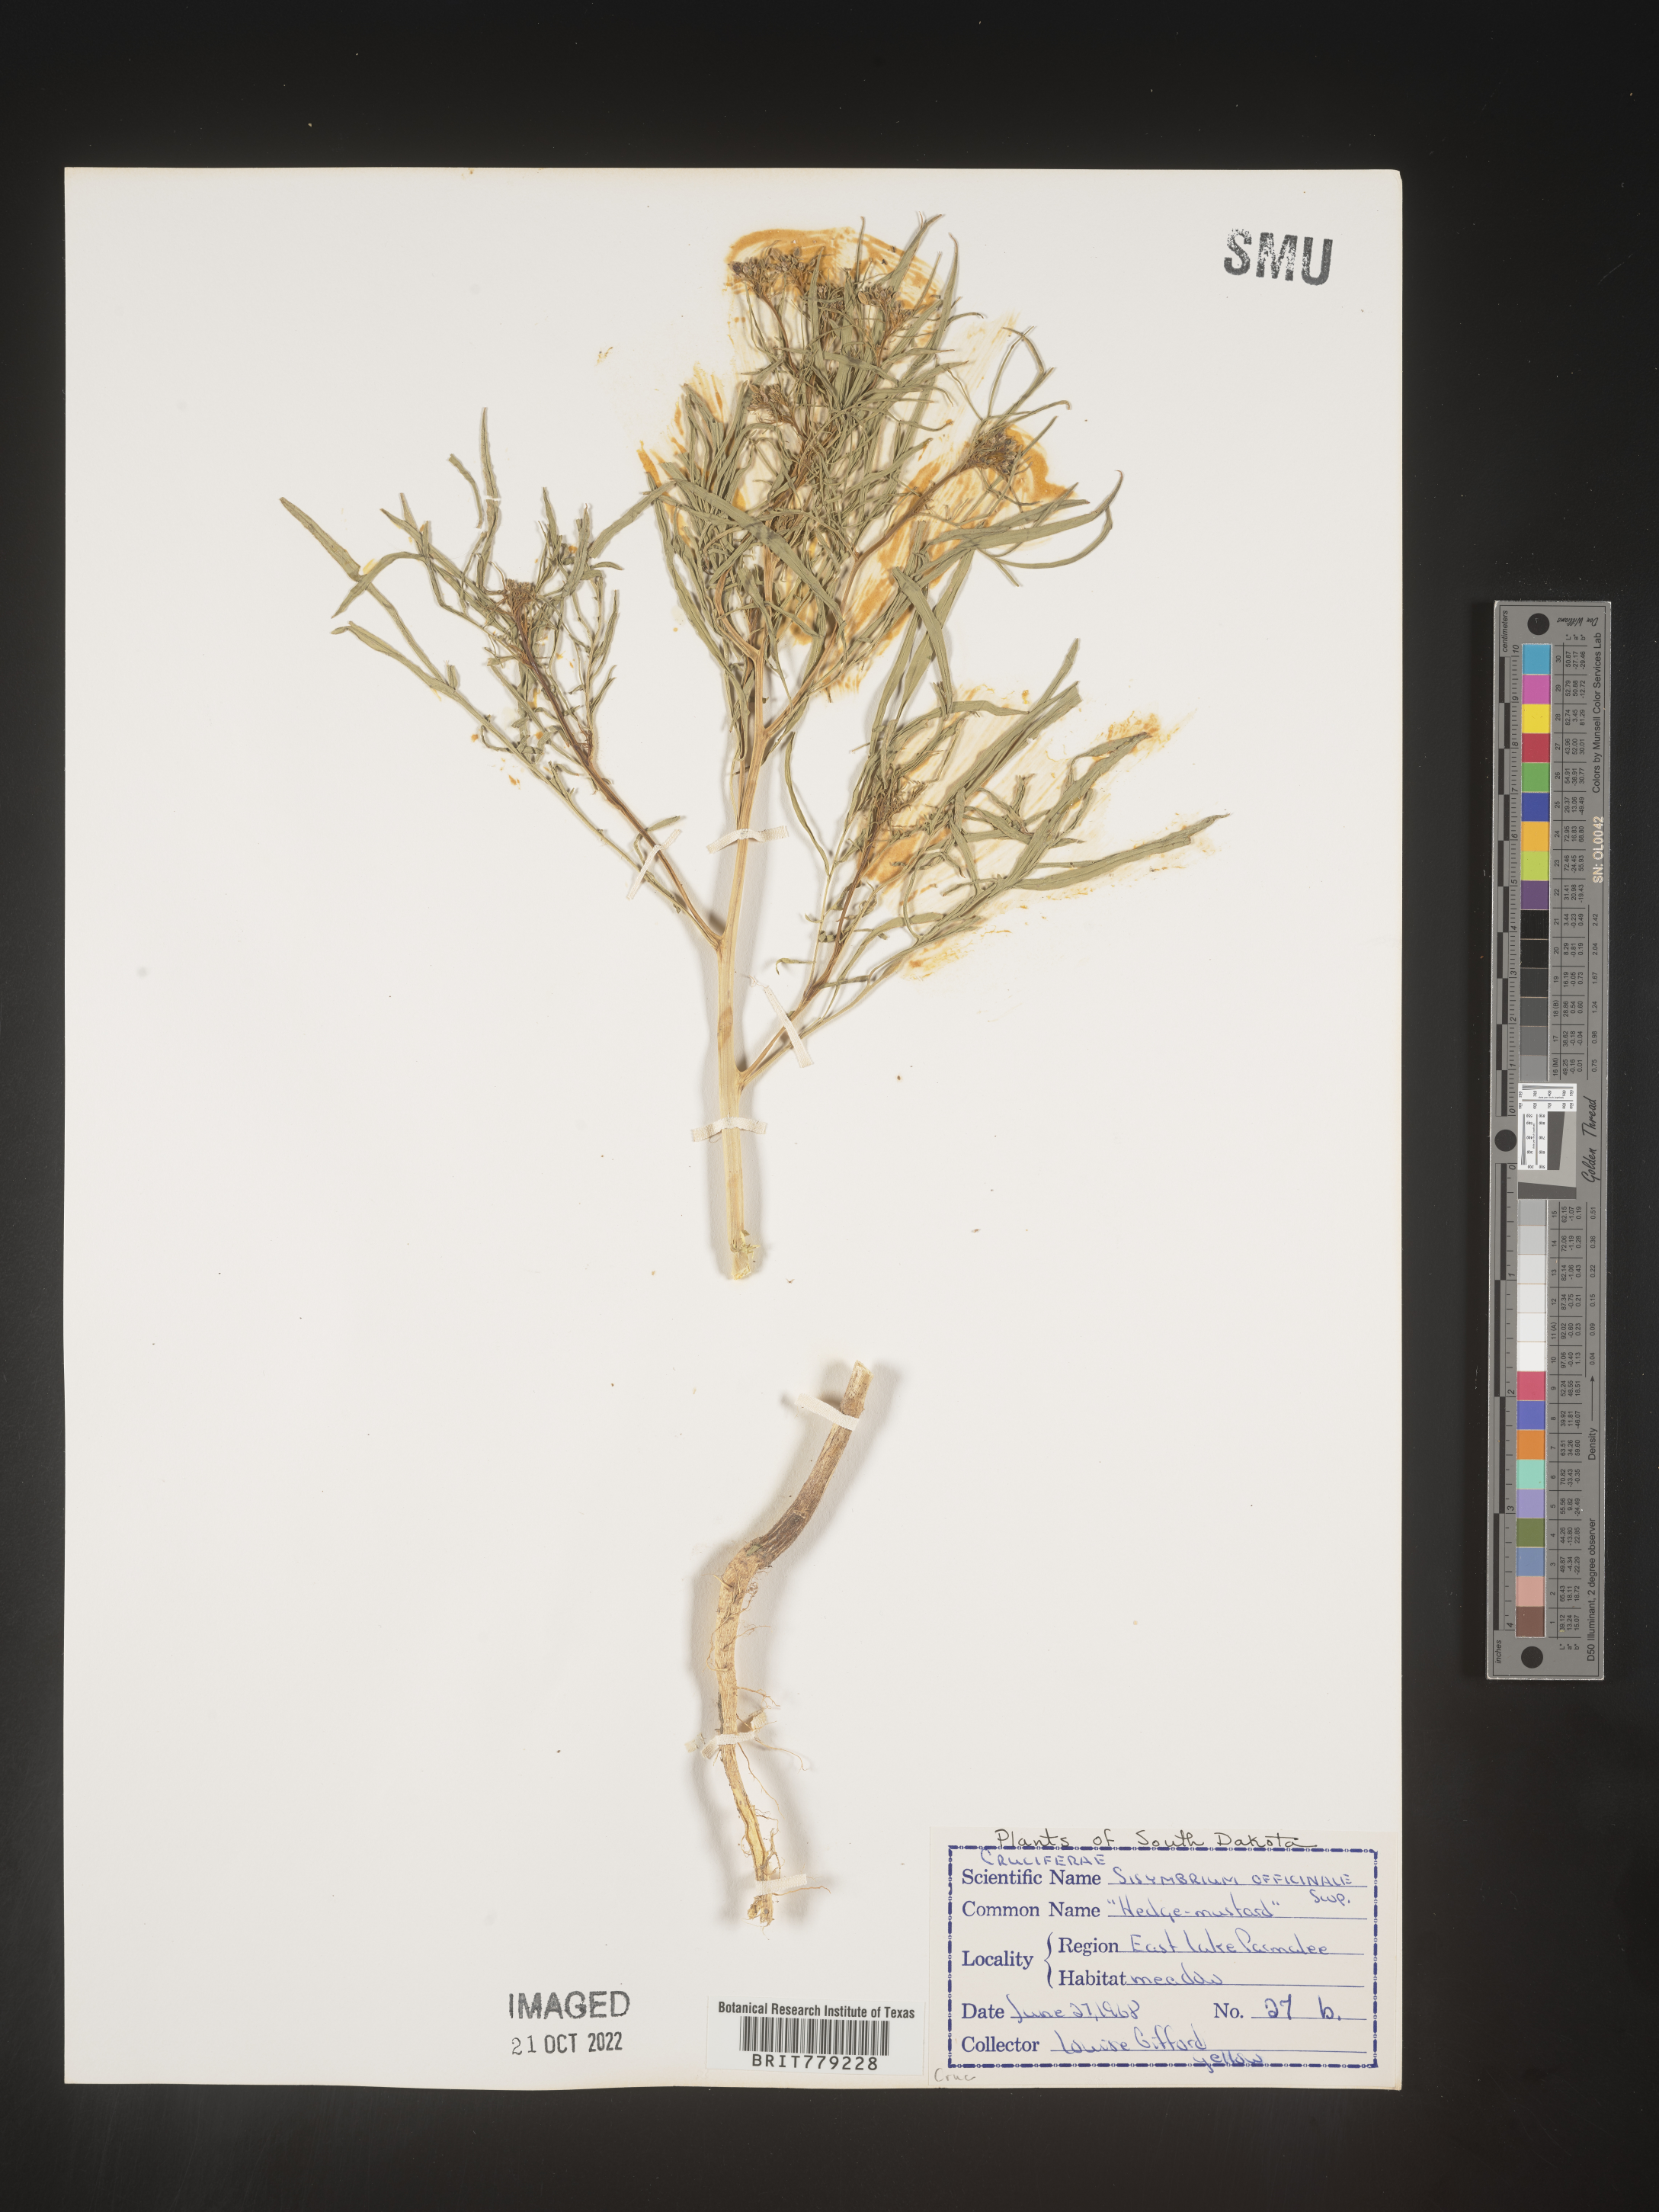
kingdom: Plantae
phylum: Tracheophyta
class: Magnoliopsida
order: Brassicales
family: Brassicaceae
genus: Sisymbrium
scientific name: Sisymbrium officinale
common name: Hedge mustard
